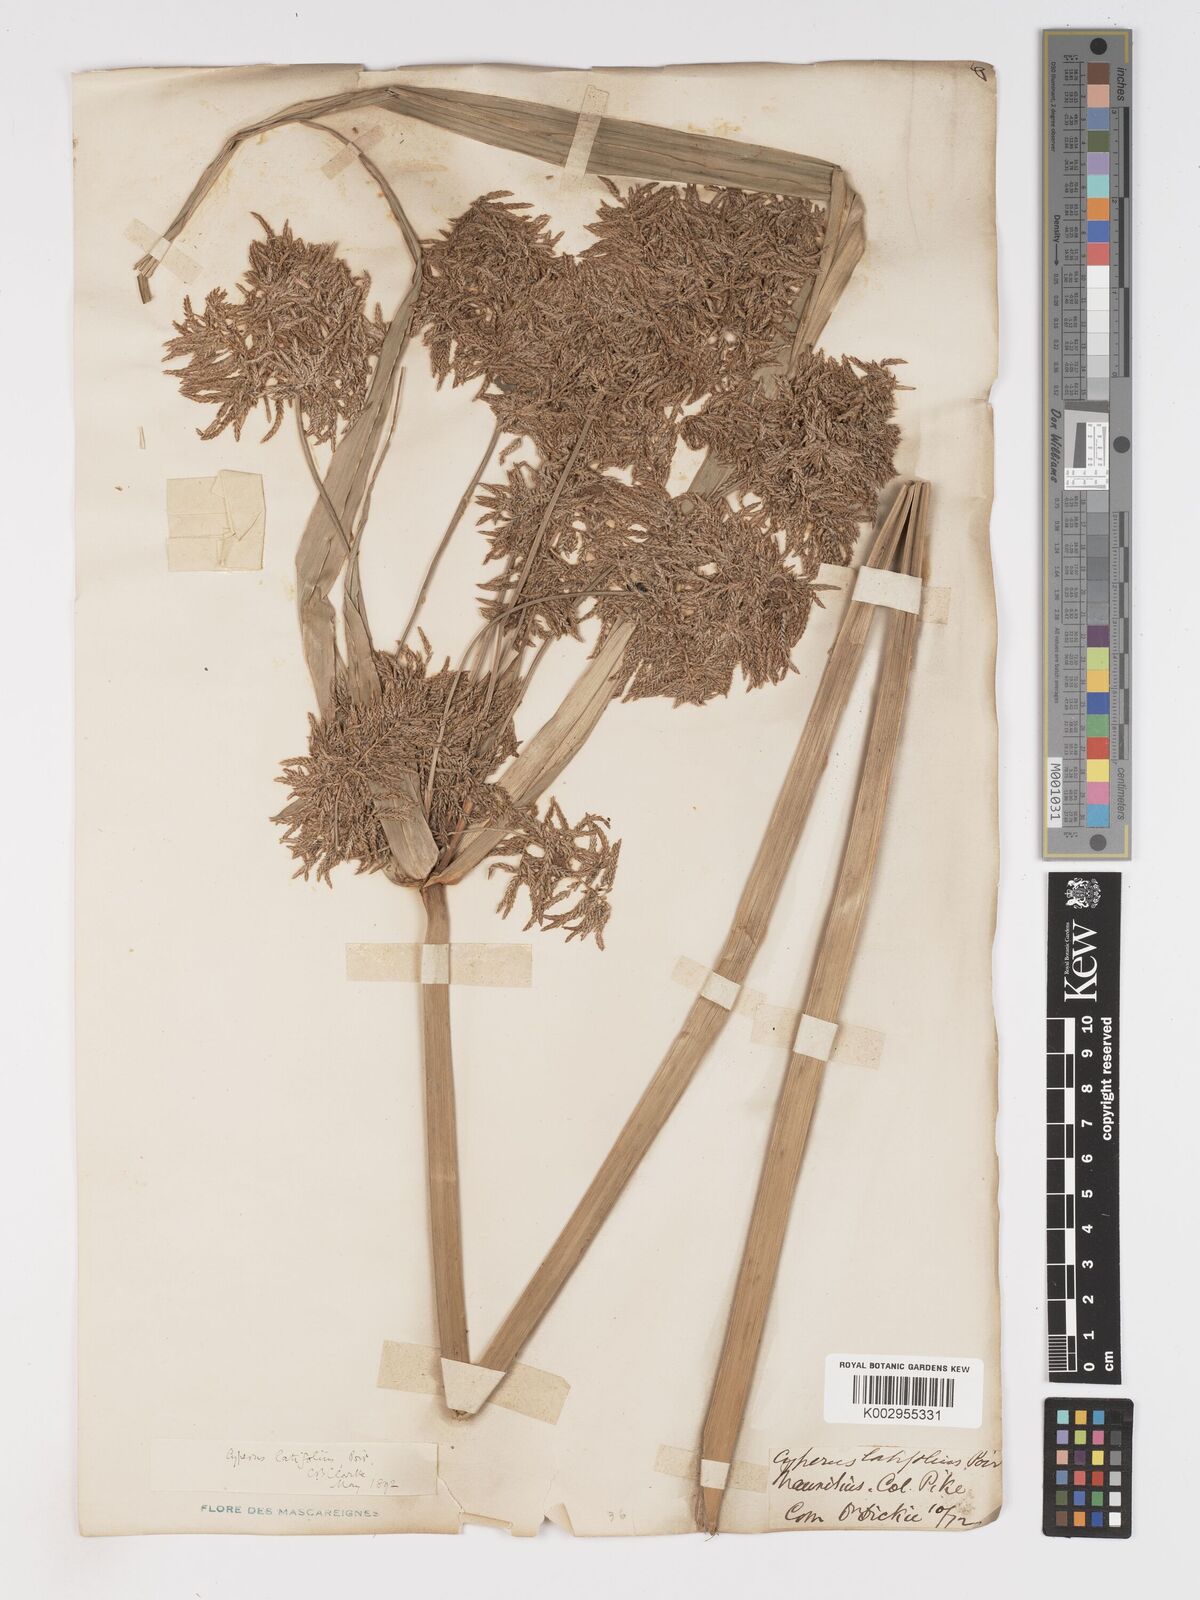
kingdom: Plantae
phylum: Tracheophyta
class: Liliopsida
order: Poales
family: Cyperaceae
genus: Cyperus
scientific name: Cyperus latifolius
